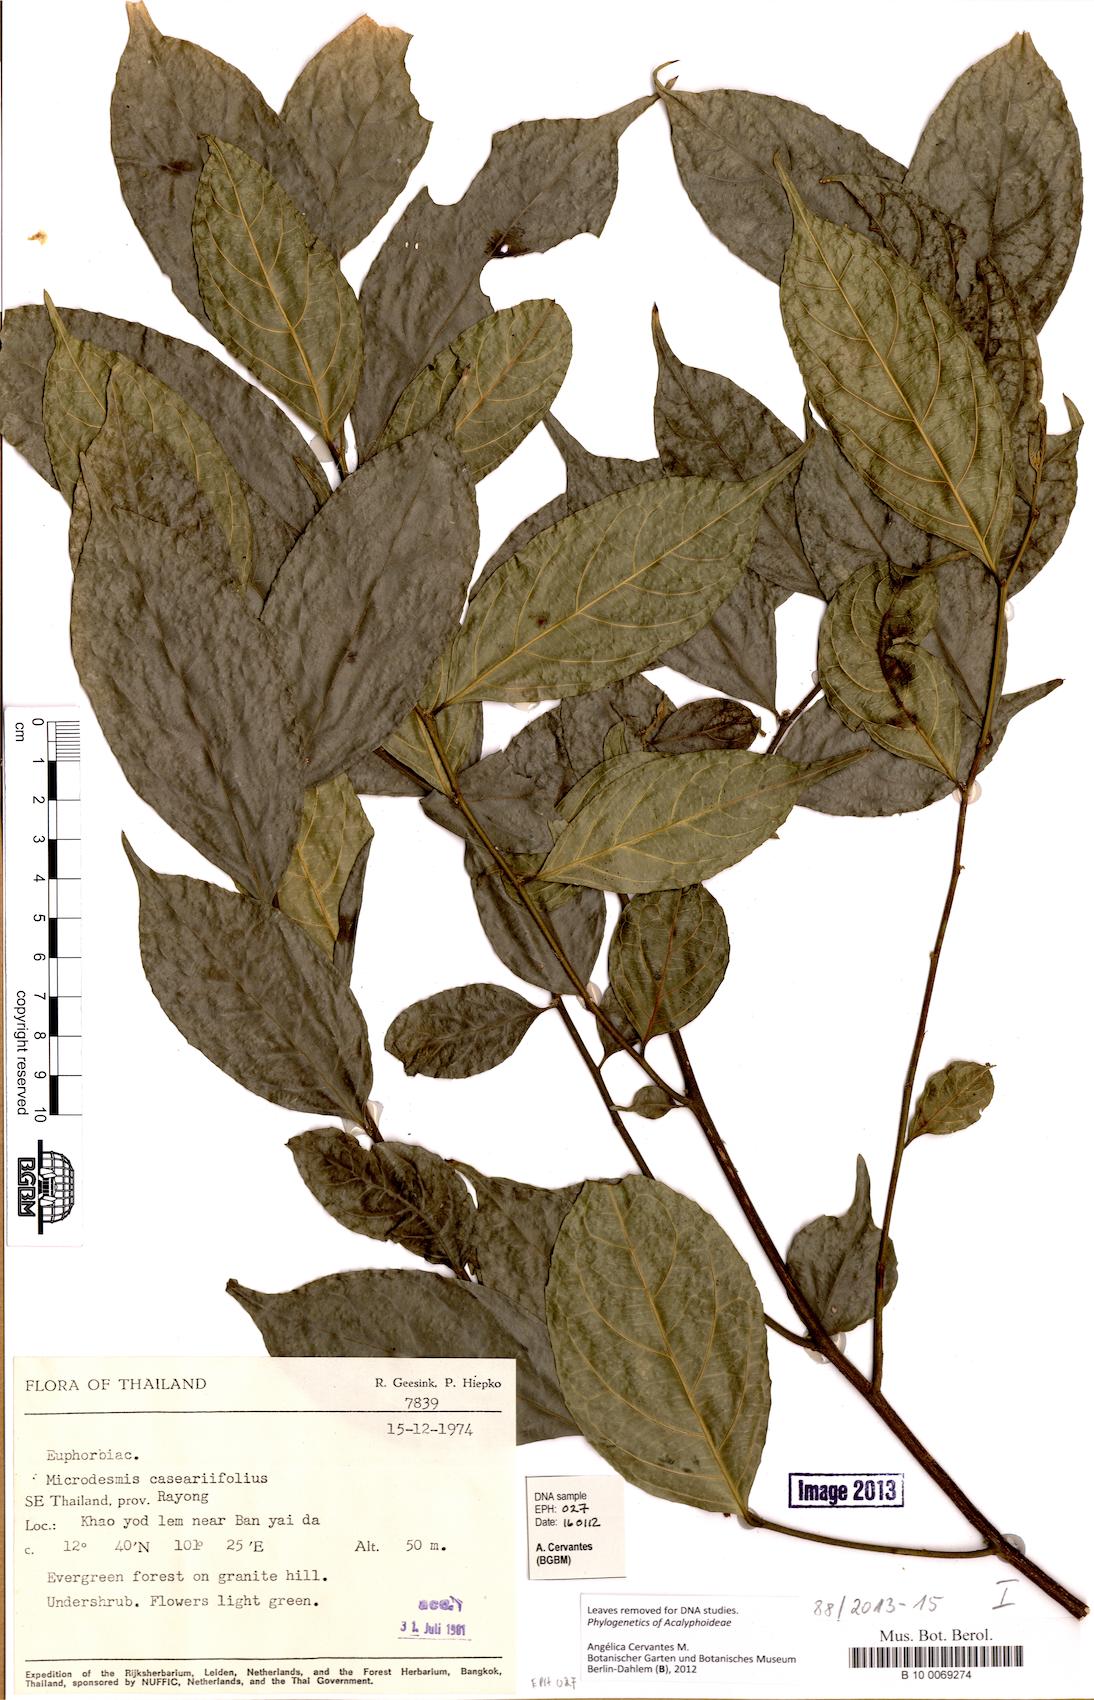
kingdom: Plantae
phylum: Tracheophyta
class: Magnoliopsida
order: Malpighiales
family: Pandaceae
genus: Microdesmis
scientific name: Microdesmis caseariifolia
